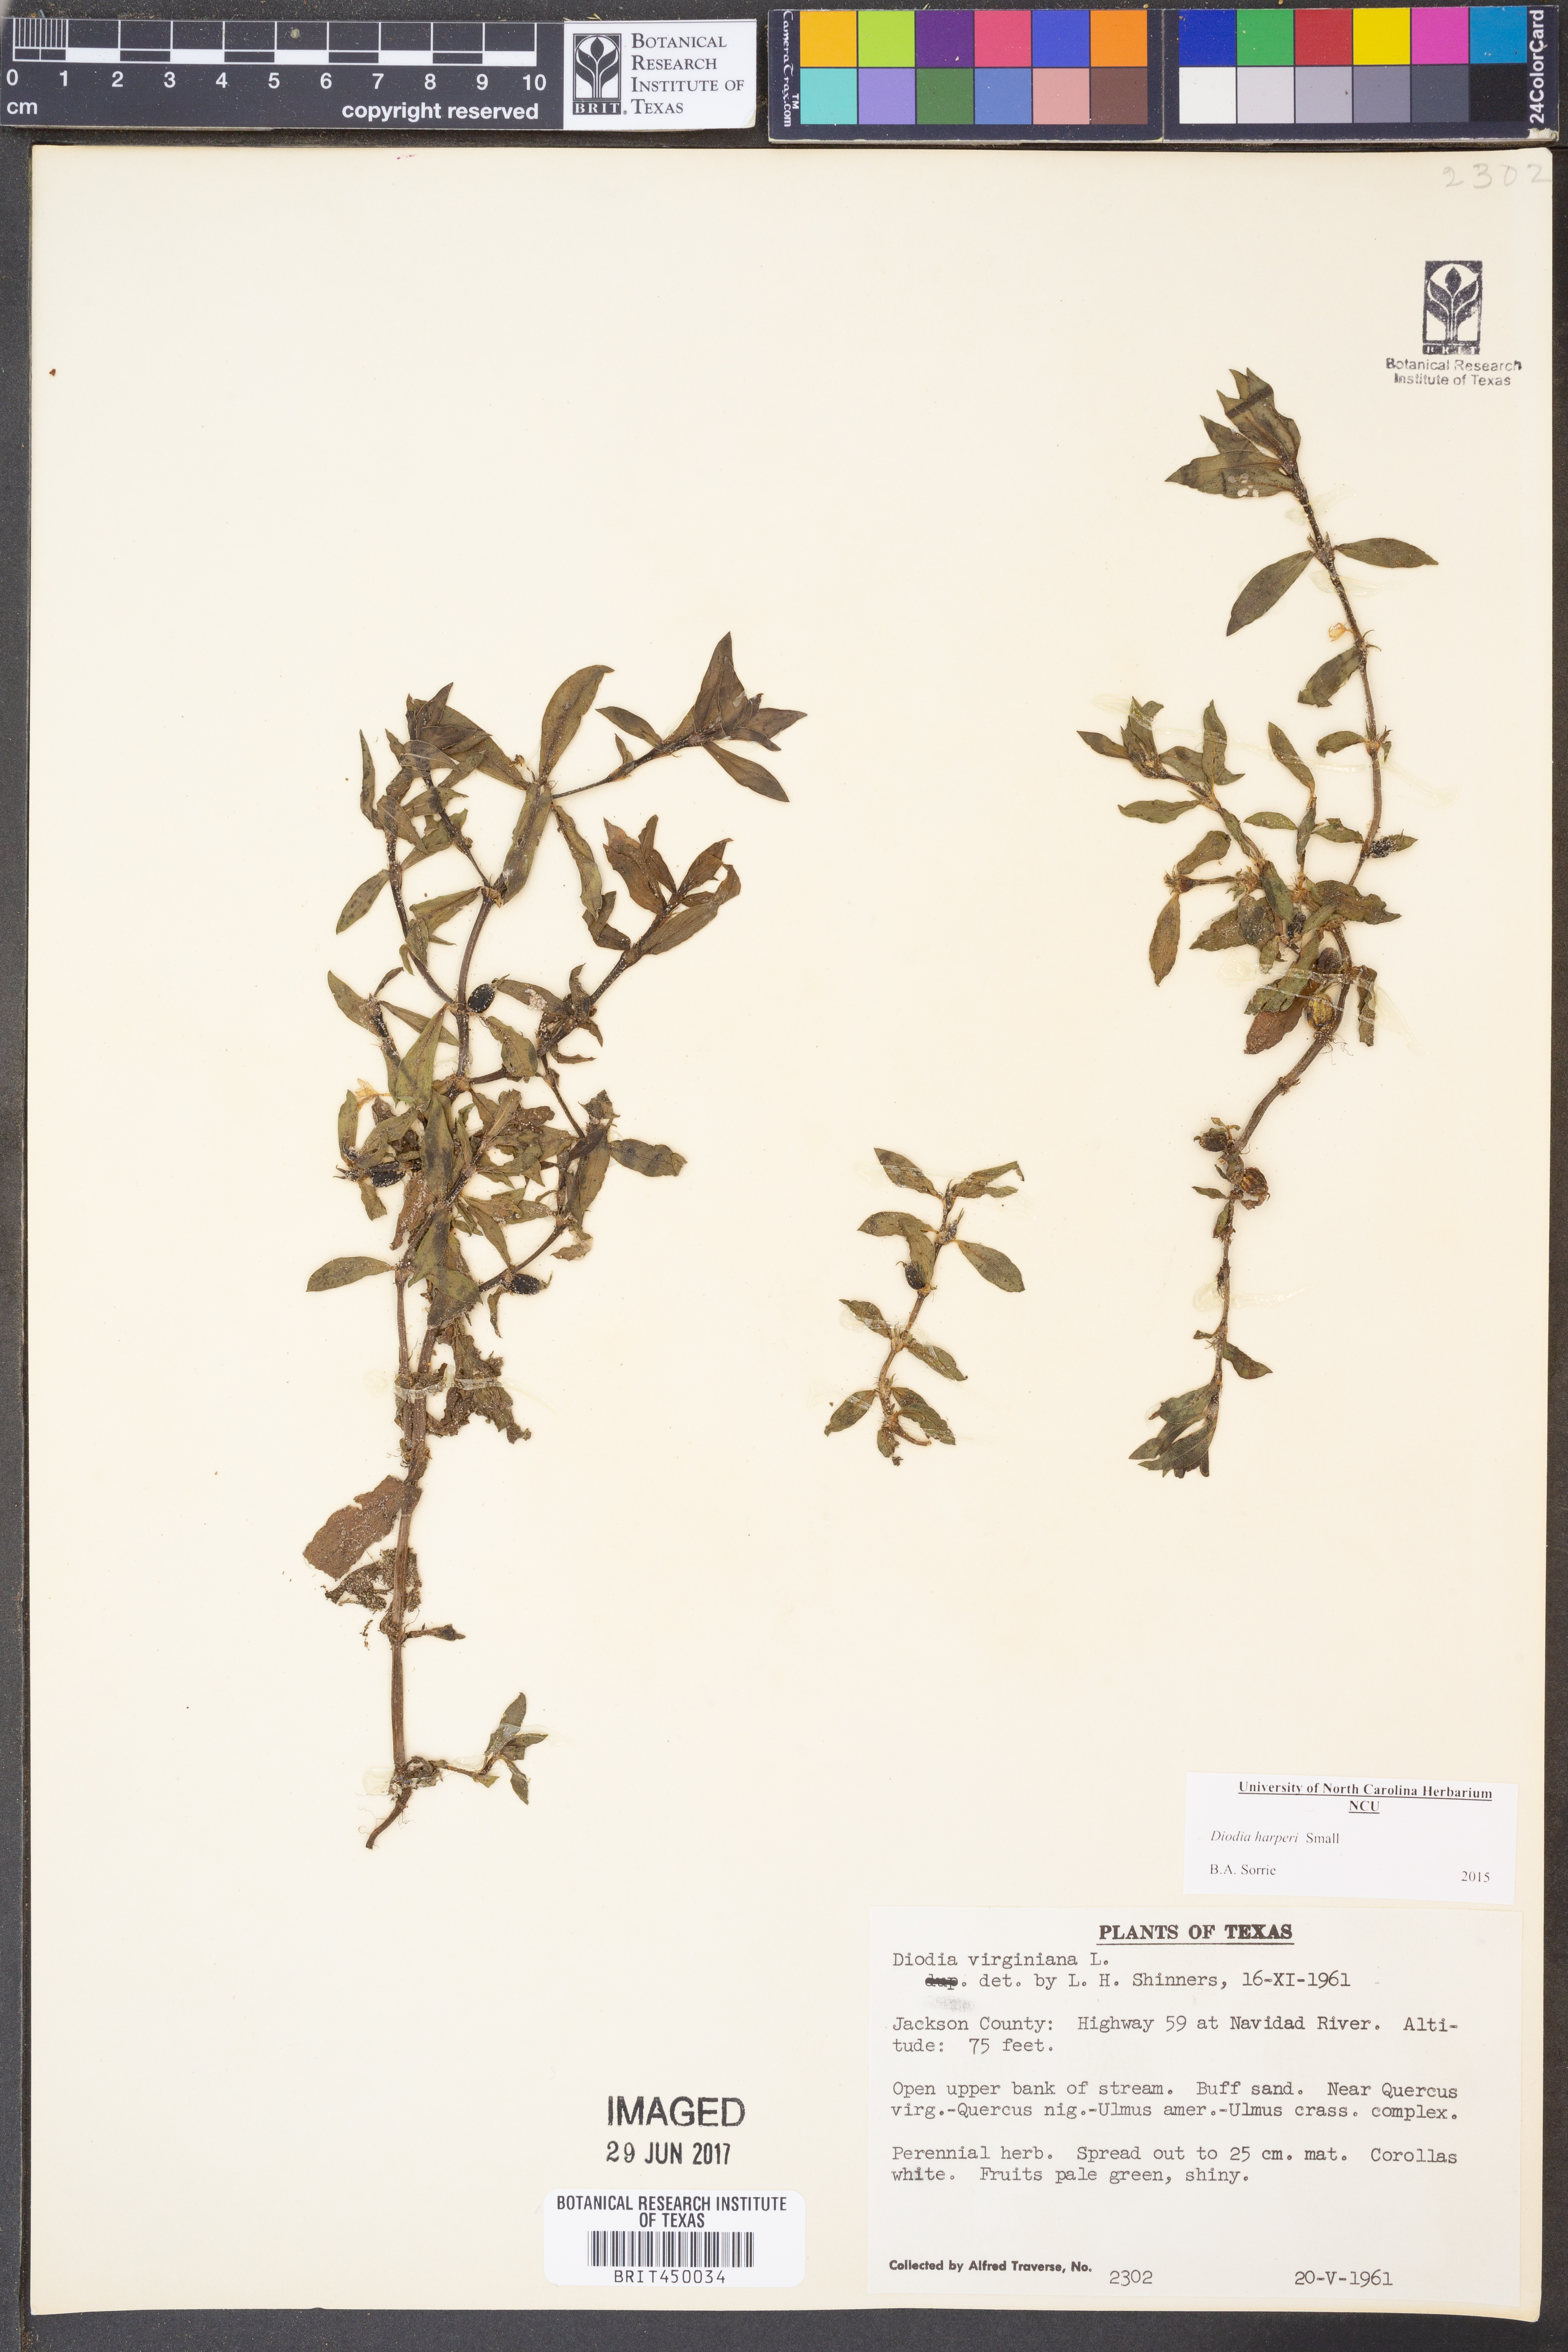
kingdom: Plantae
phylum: Tracheophyta
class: Magnoliopsida
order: Gentianales
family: Rubiaceae
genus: Diodia
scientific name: Diodia virginiana
